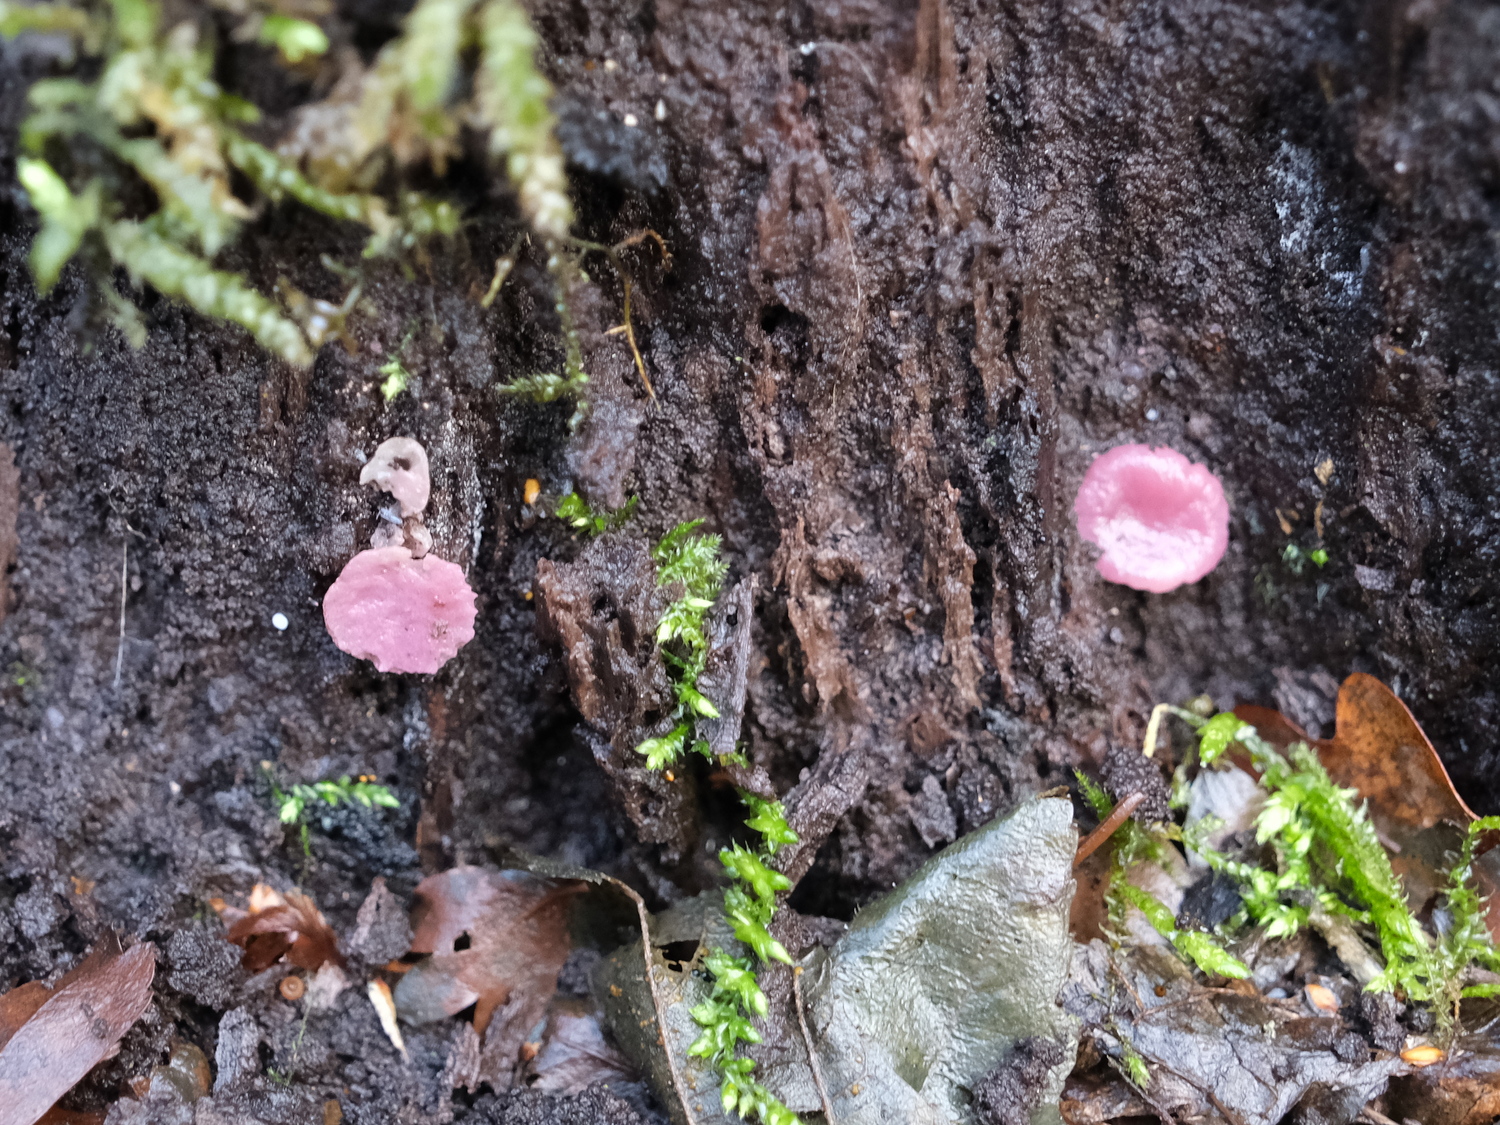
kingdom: Fungi
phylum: Ascomycota
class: Leotiomycetes
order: Helotiales
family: Gelatinodiscaceae
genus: Ascocoryne
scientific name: Ascocoryne cylichnium
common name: stor sejskive
